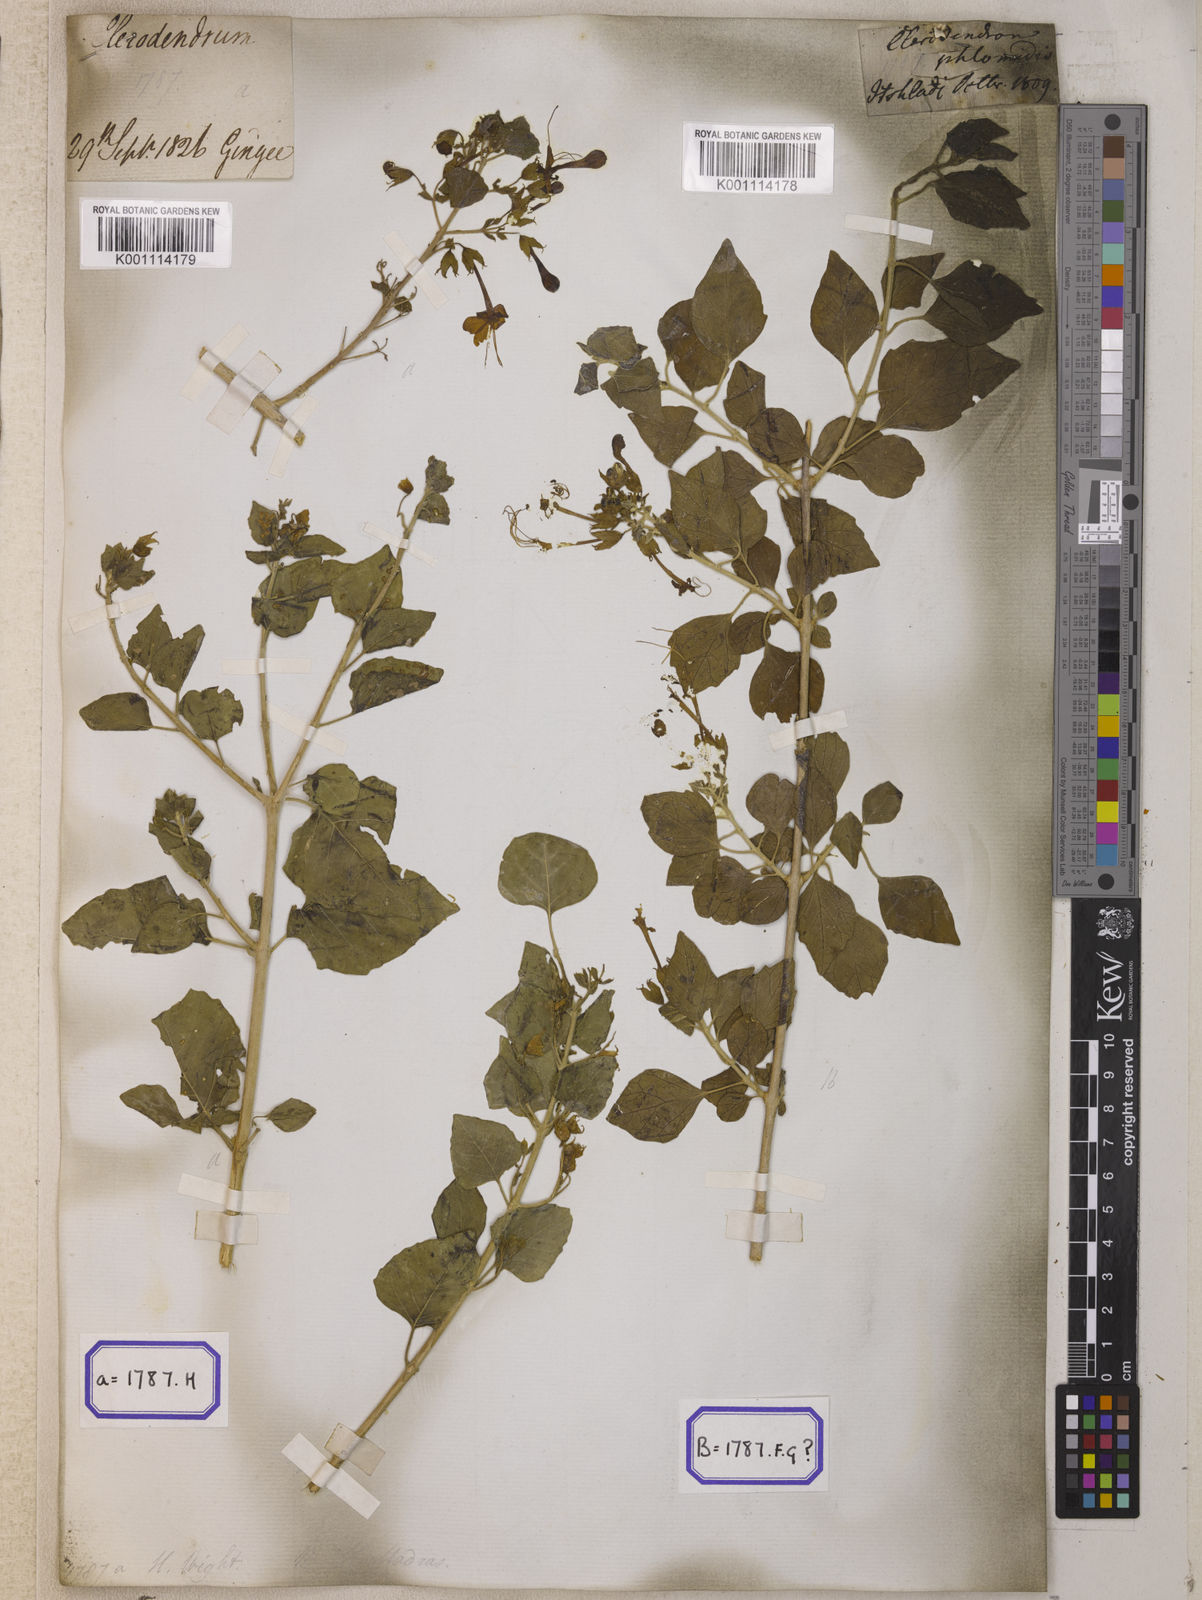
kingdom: Plantae
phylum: Tracheophyta
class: Magnoliopsida
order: Lamiales
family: Lamiaceae
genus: Clerodendrum
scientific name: Clerodendrum
